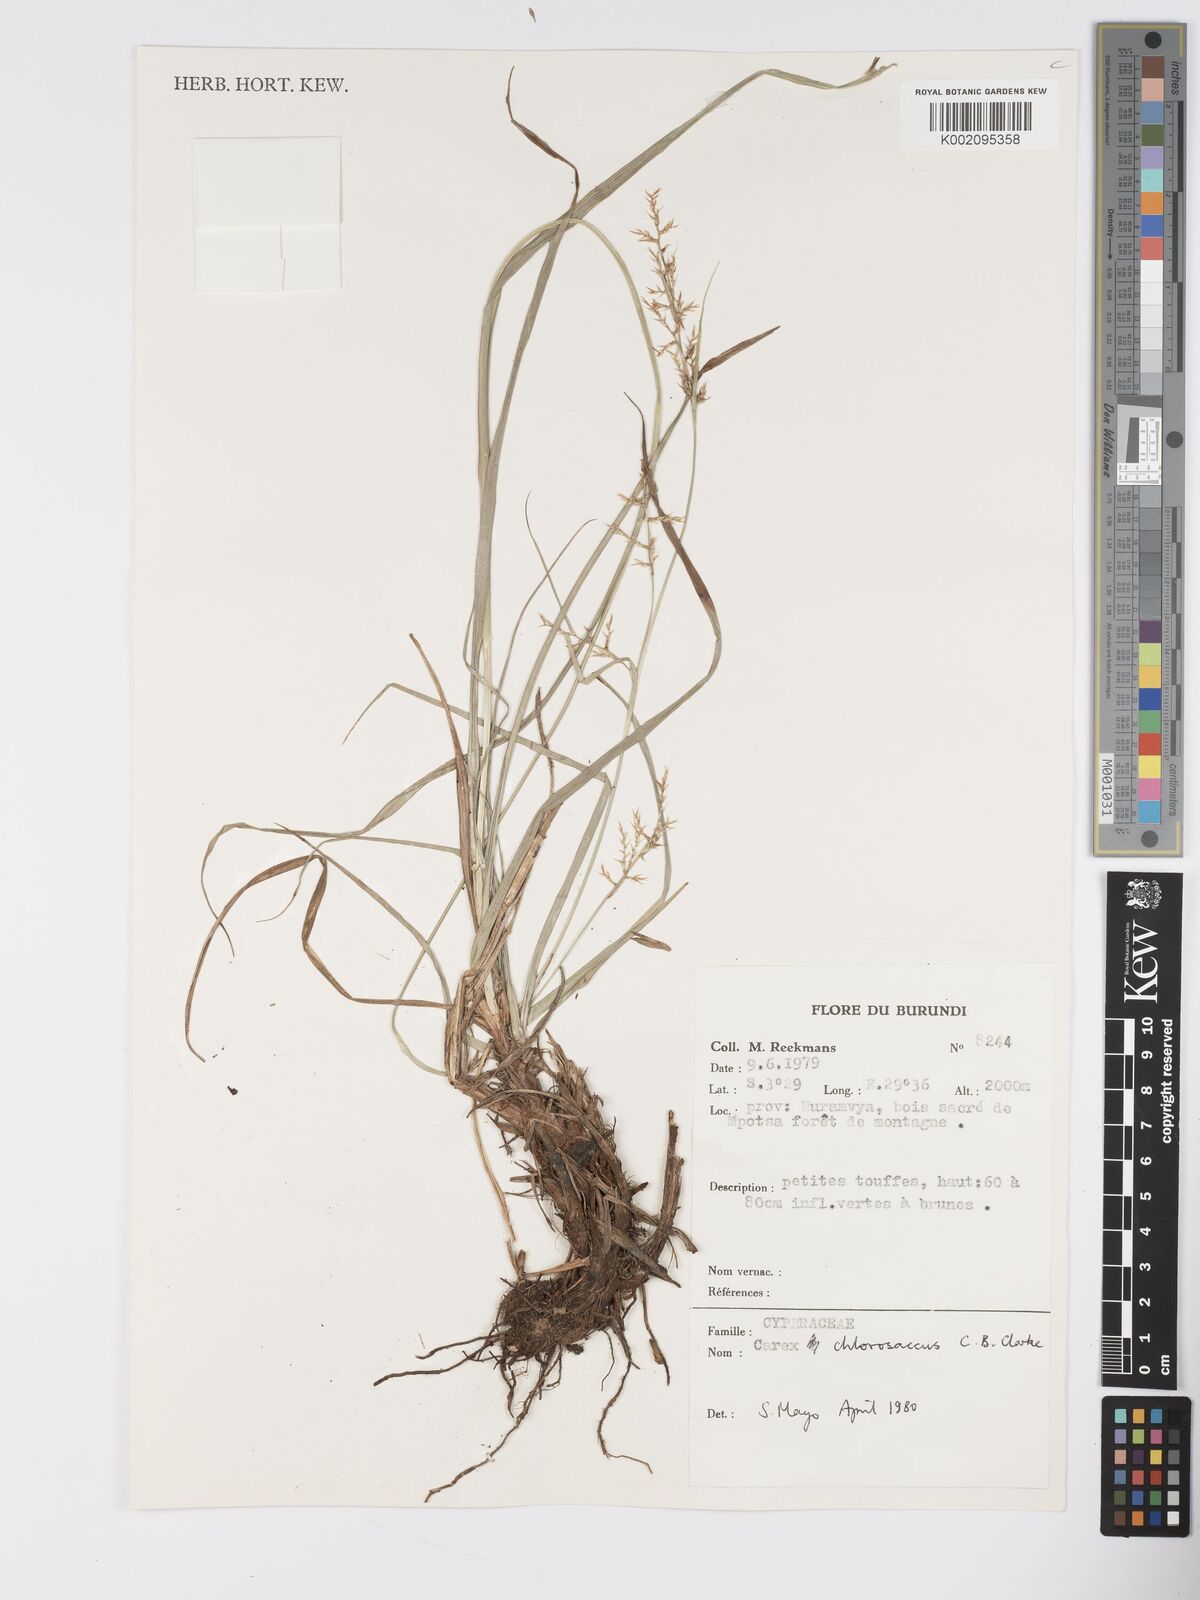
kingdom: Plantae
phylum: Tracheophyta
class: Liliopsida
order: Poales
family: Cyperaceae
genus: Carex
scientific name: Carex chlorosaccus
